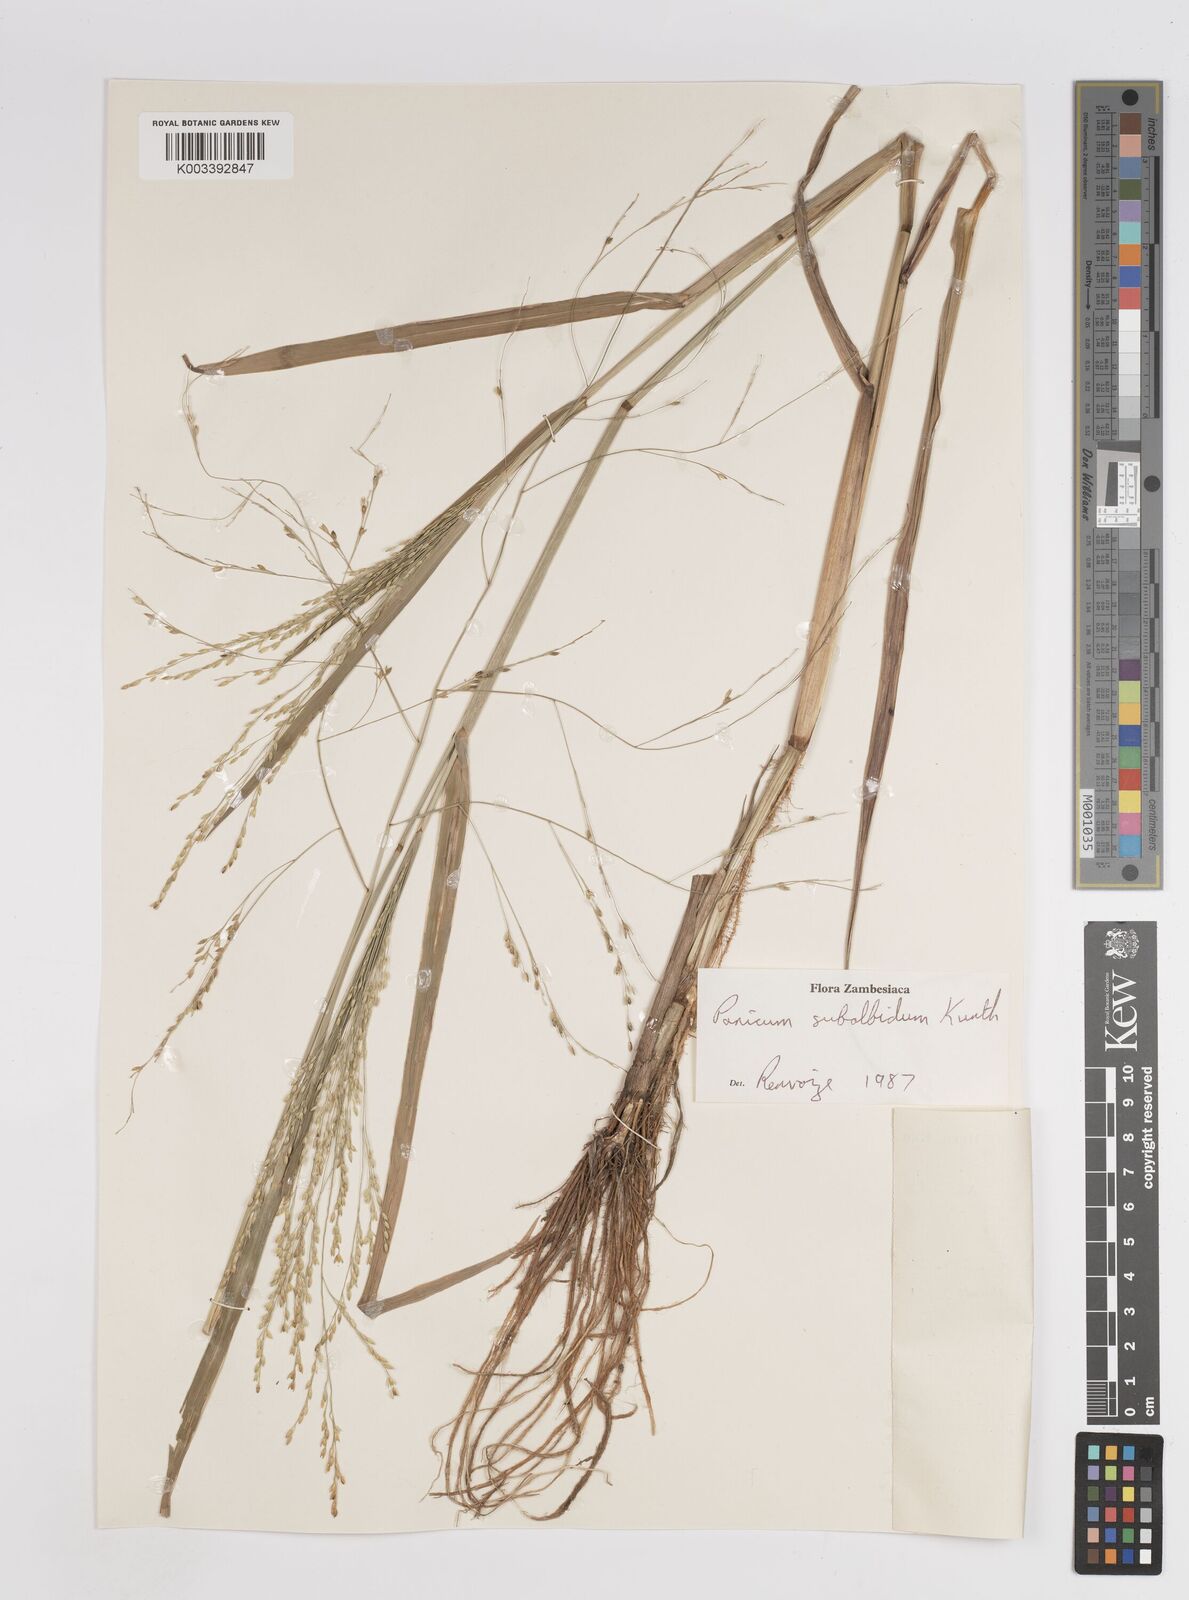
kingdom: Plantae
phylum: Tracheophyta
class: Liliopsida
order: Poales
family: Poaceae
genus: Panicum
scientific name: Panicum subalbidum
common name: Elbow buffalo grass
